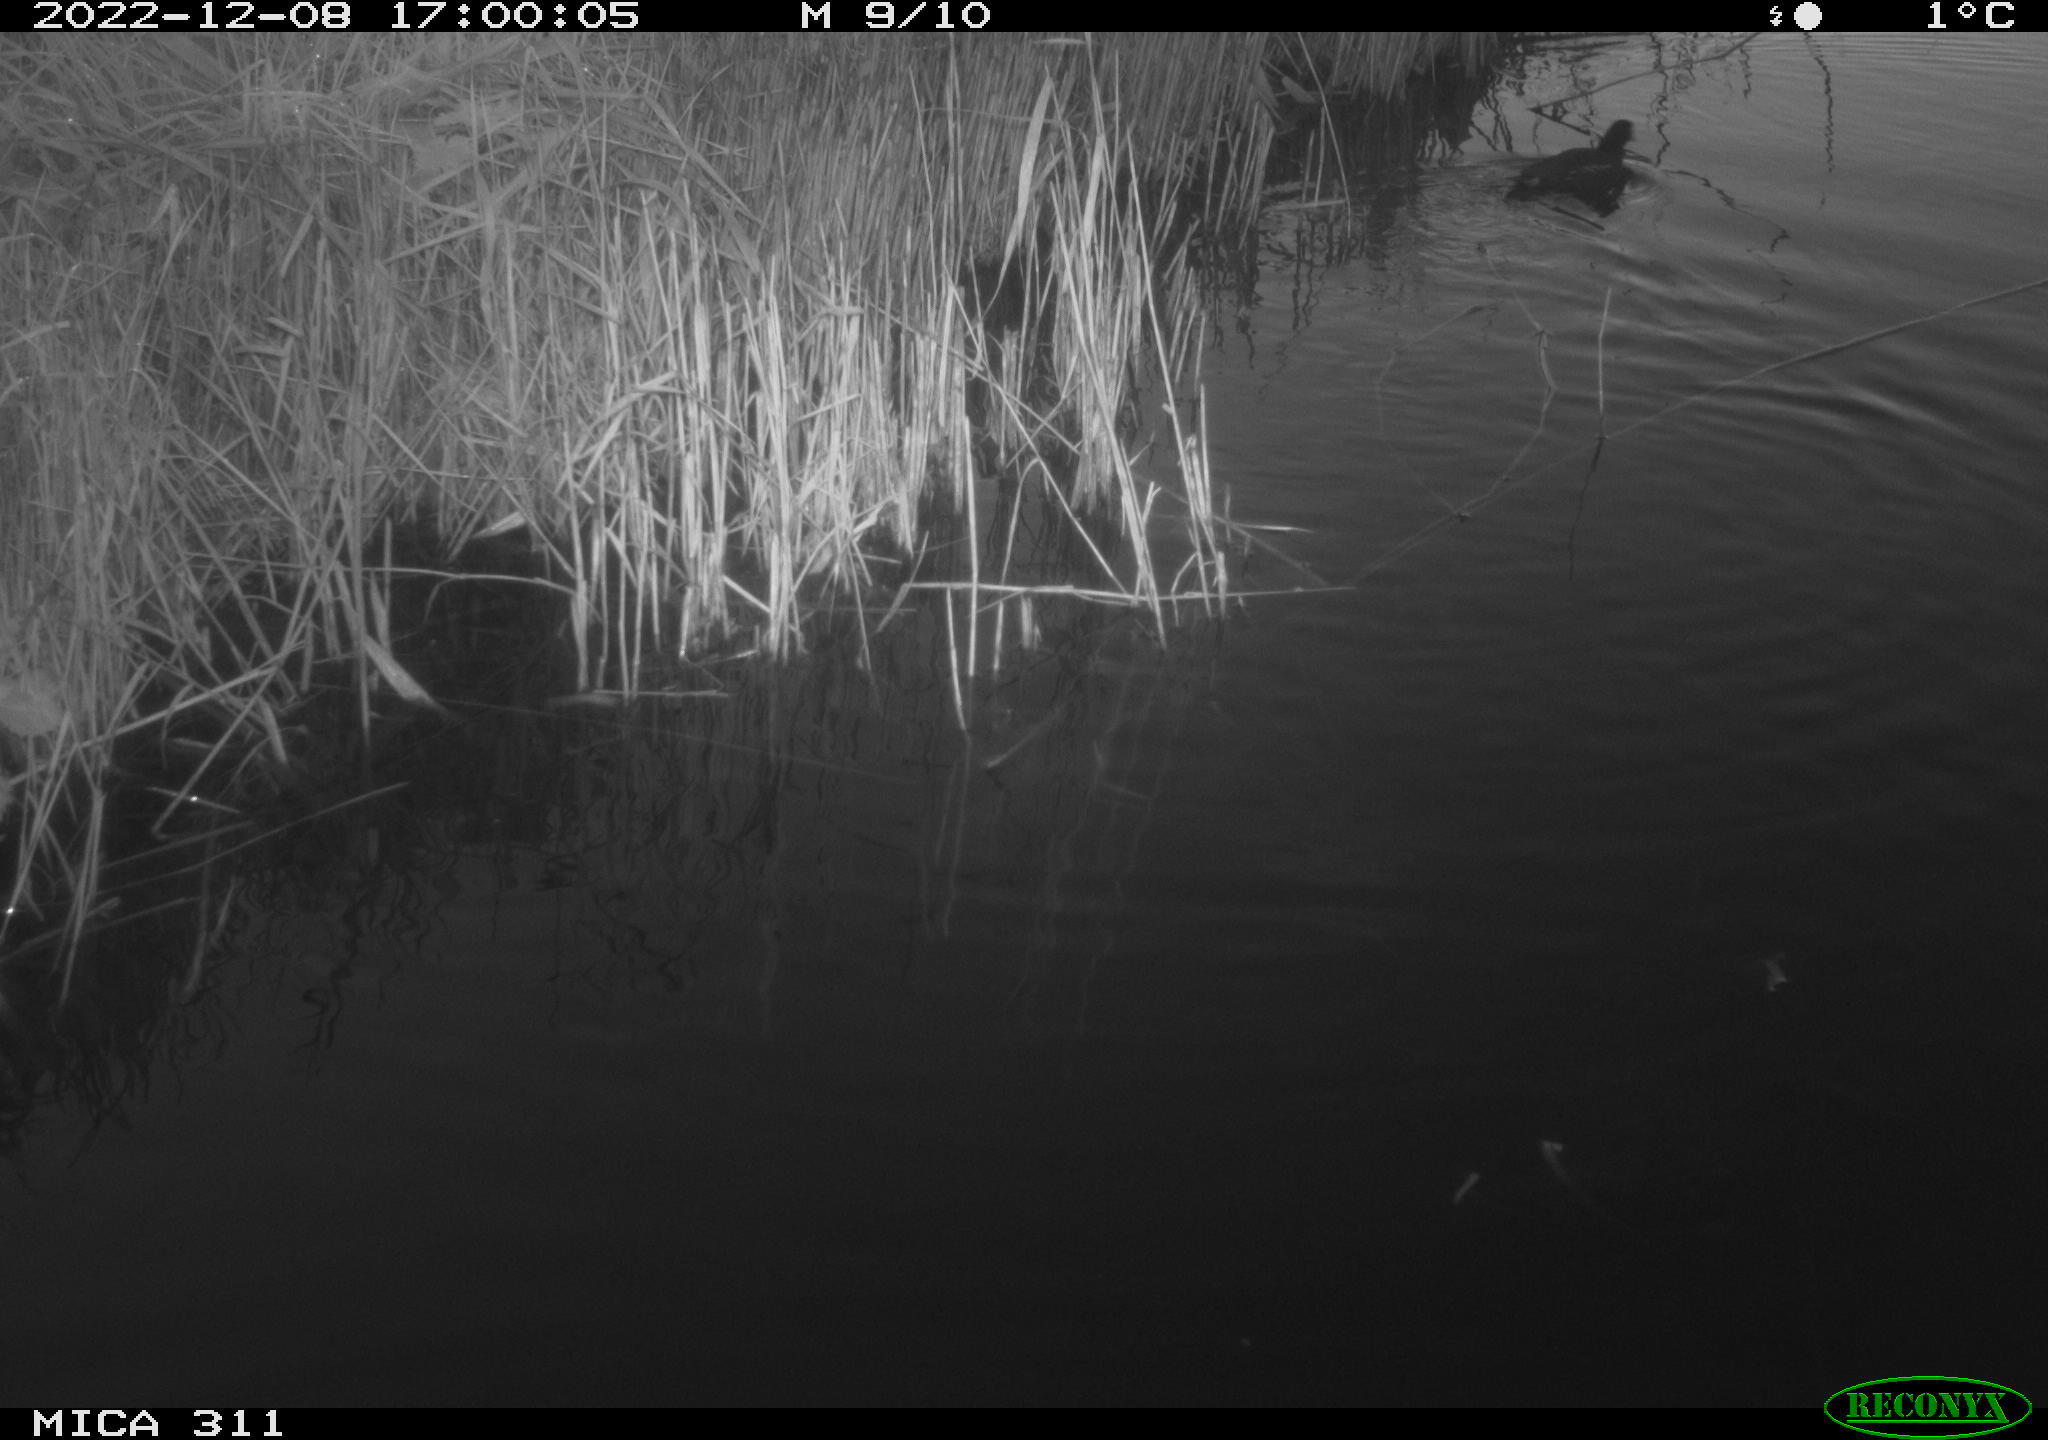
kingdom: Animalia
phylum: Chordata
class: Aves
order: Gruiformes
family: Rallidae
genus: Gallinula
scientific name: Gallinula chloropus
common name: Common moorhen
